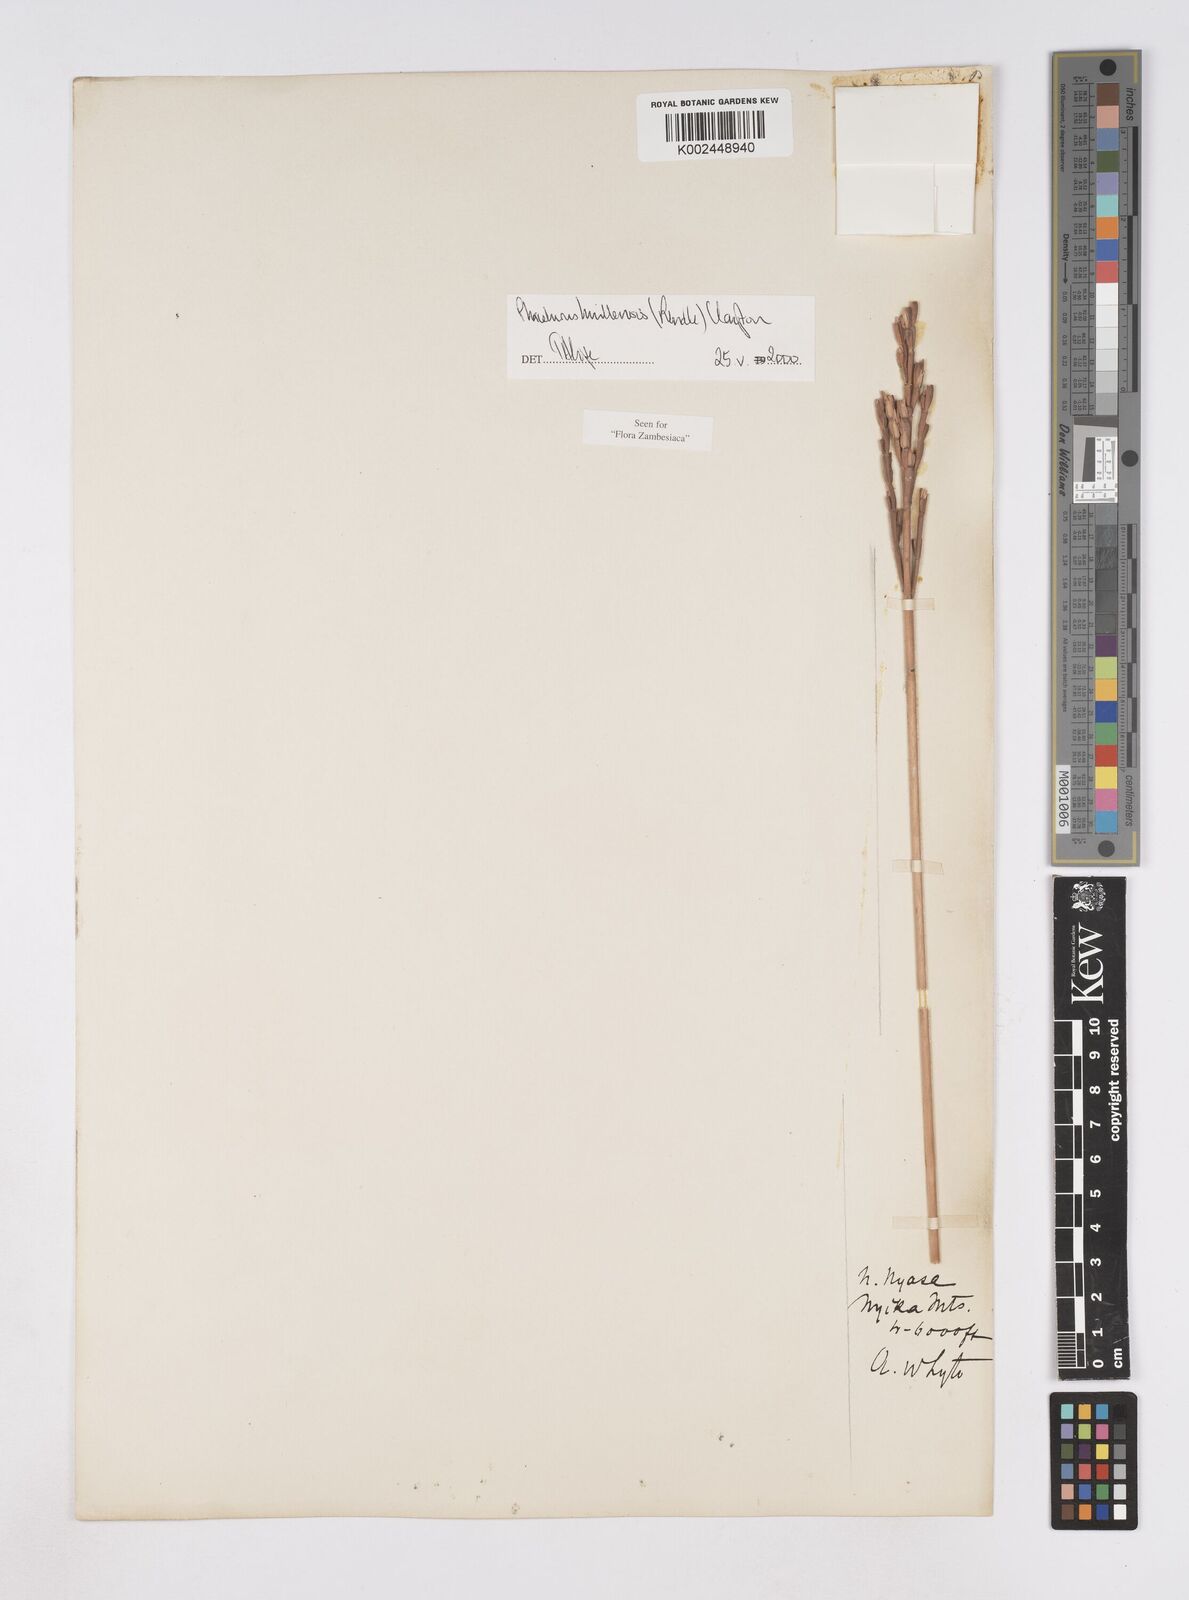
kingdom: Plantae
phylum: Tracheophyta
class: Liliopsida
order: Poales
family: Poaceae
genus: Thyrsia
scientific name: Thyrsia huillensis
